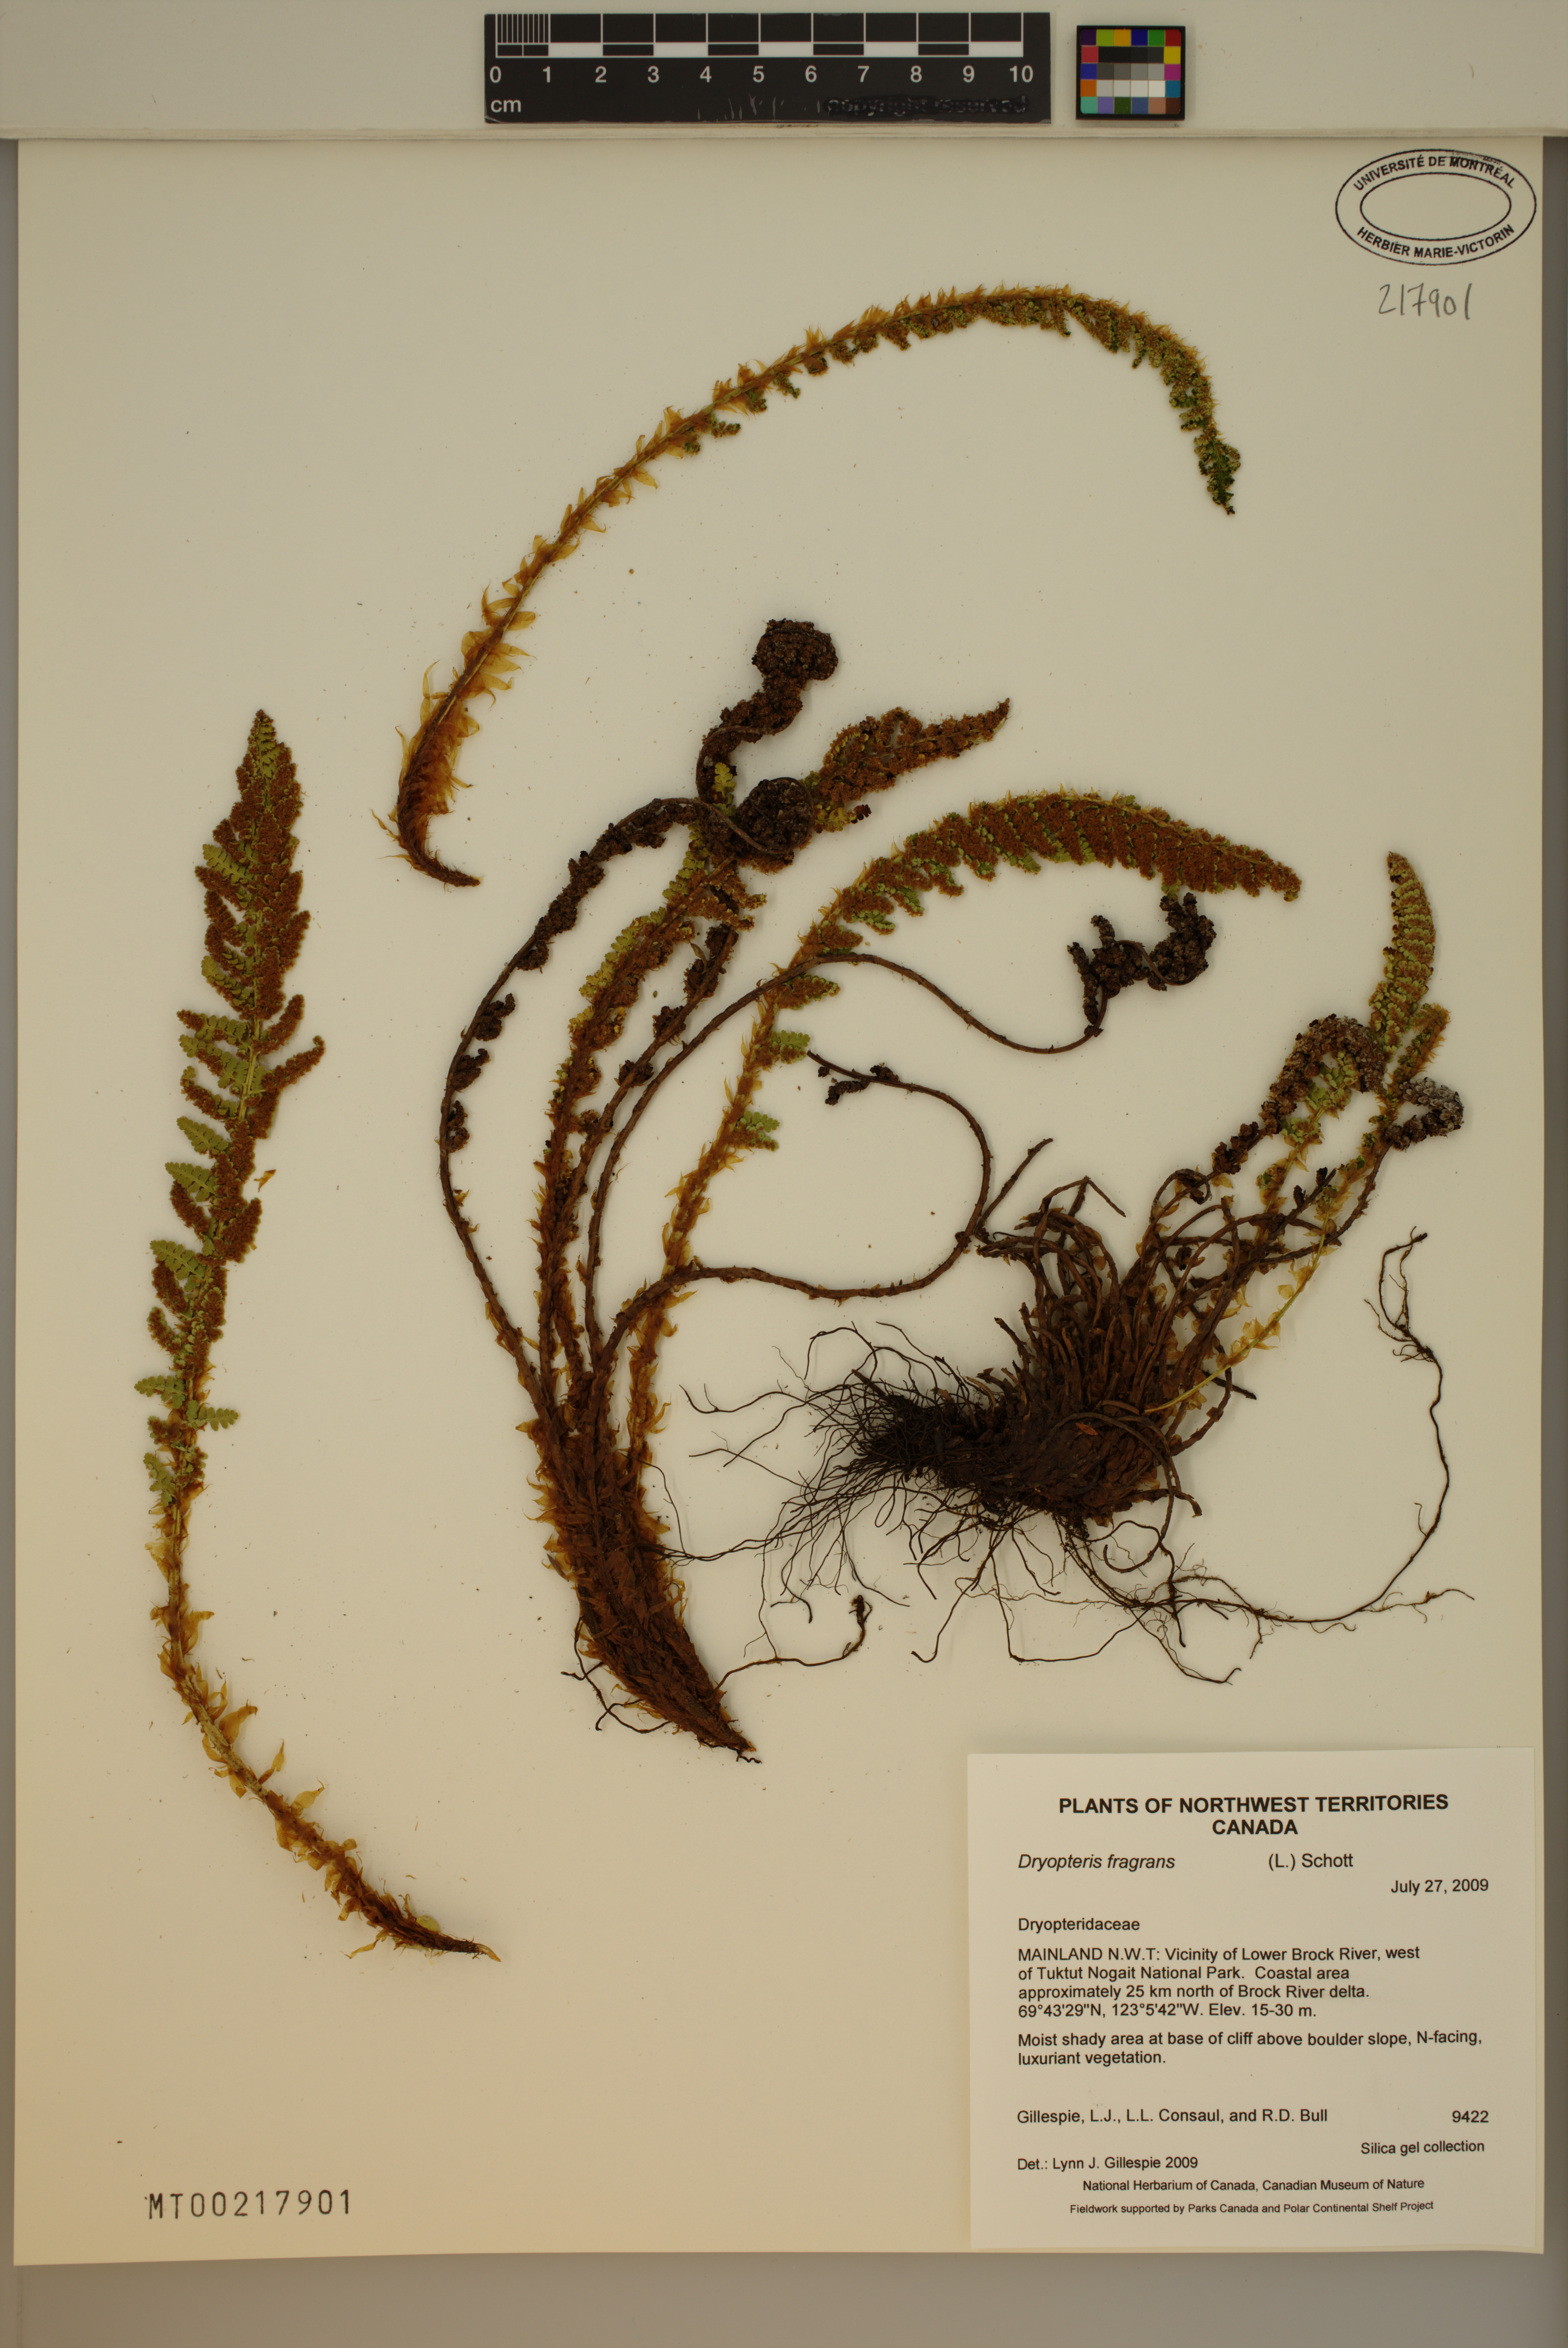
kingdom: Plantae
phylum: Tracheophyta
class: Polypodiopsida
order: Polypodiales
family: Dryopteridaceae
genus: Dryopteris
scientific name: Dryopteris fragrans
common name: Fragrant wood fern
